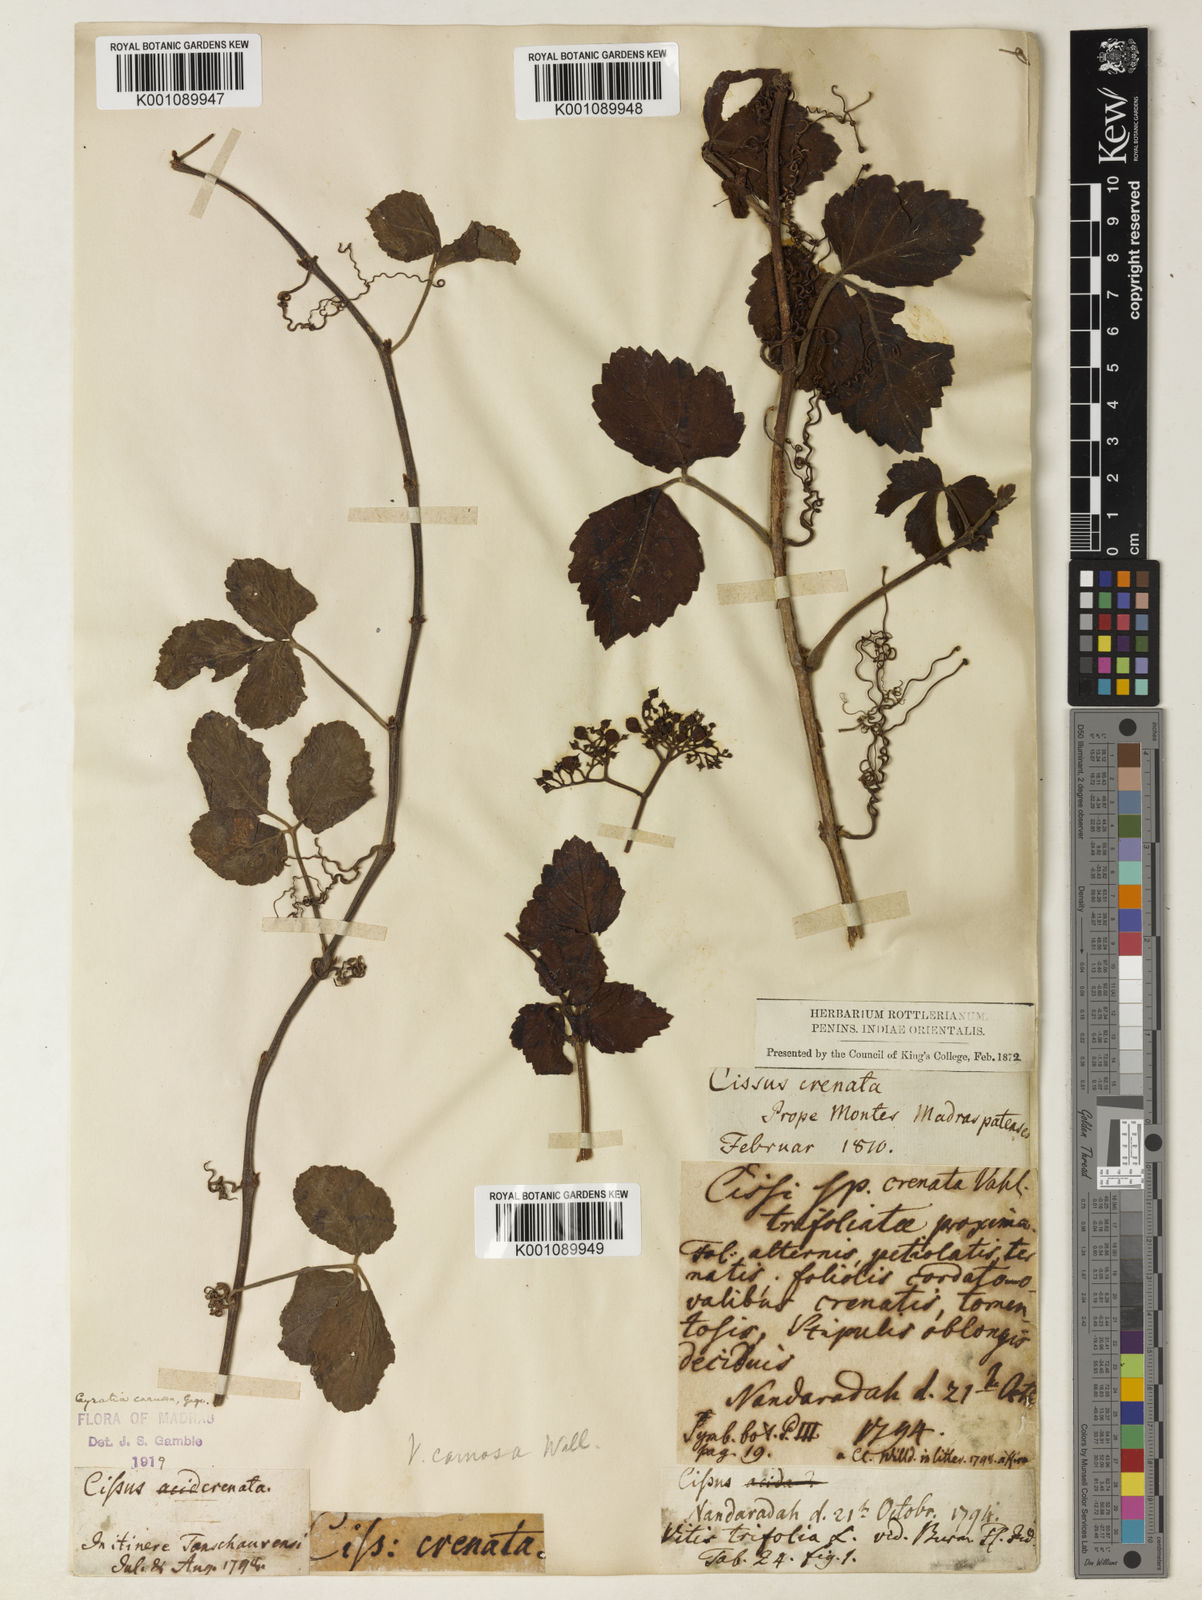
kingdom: Plantae
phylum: Tracheophyta
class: Magnoliopsida
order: Vitales
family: Vitaceae
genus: Causonis
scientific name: Causonis trifolia
